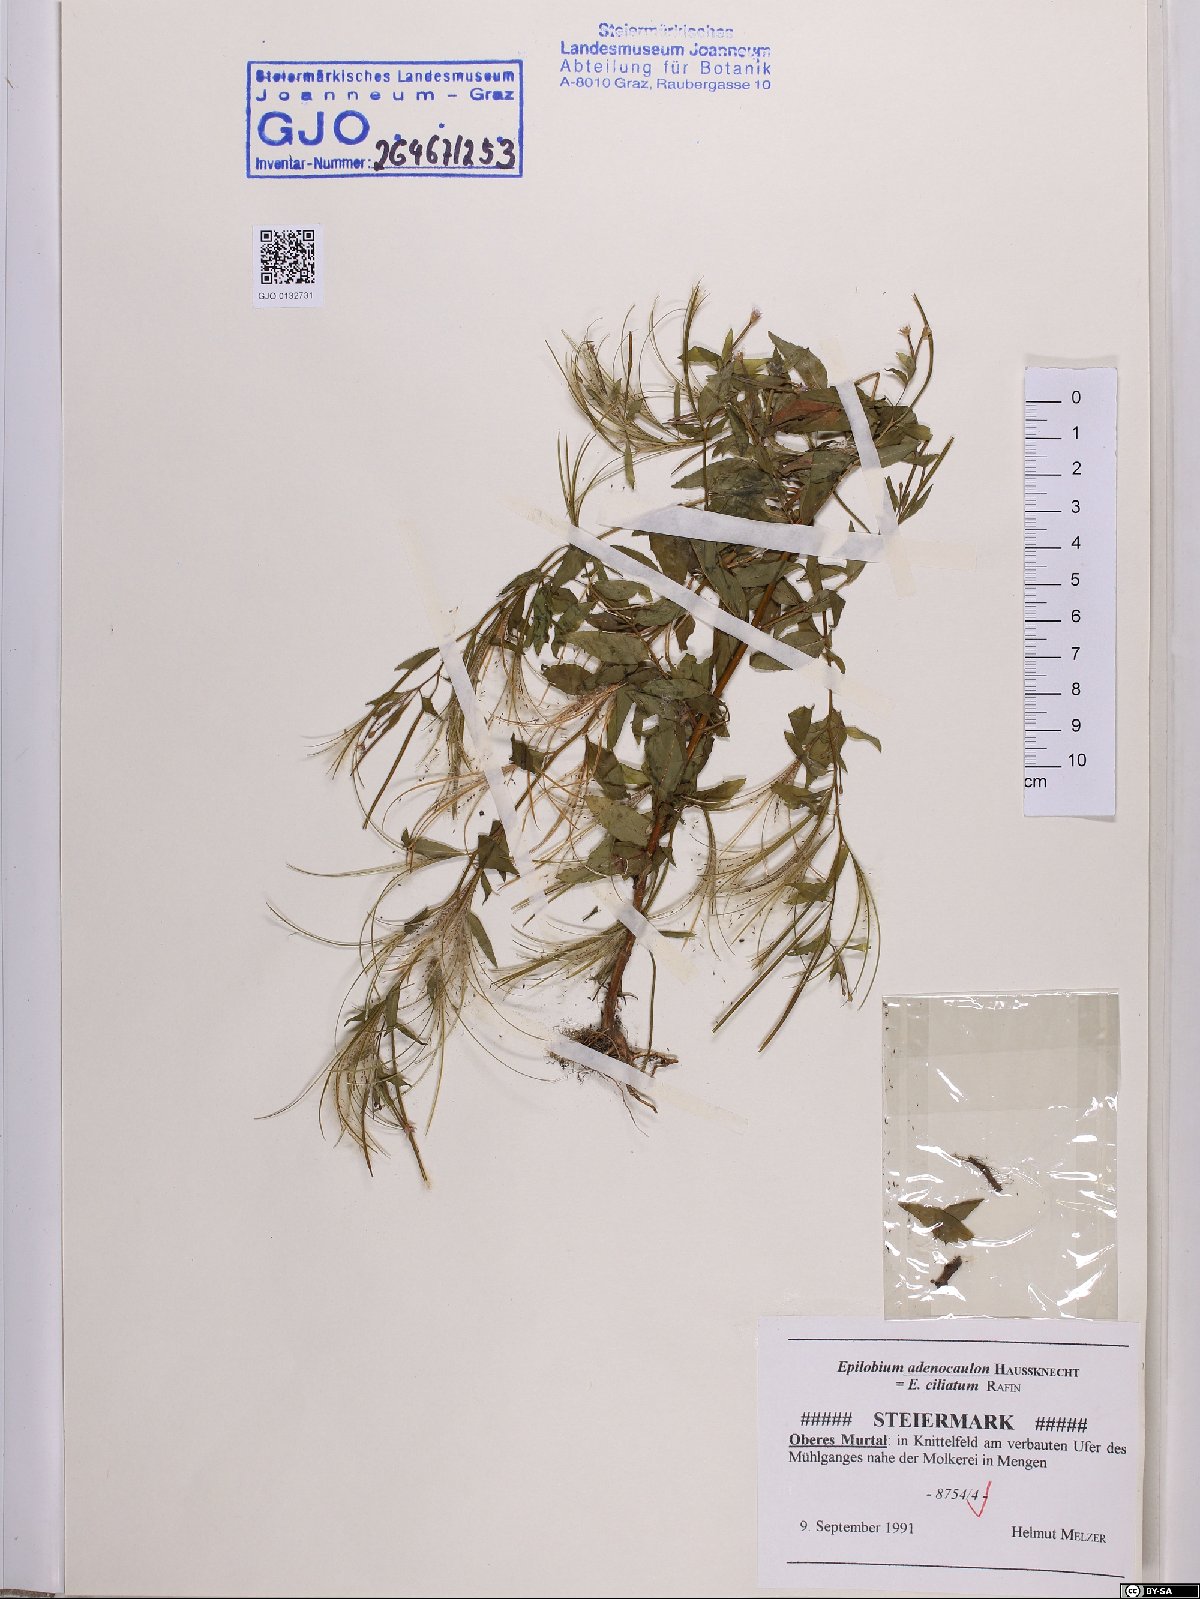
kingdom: Plantae
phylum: Tracheophyta
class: Magnoliopsida
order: Myrtales
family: Onagraceae
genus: Epilobium
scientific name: Epilobium ciliatum
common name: American willowherb
